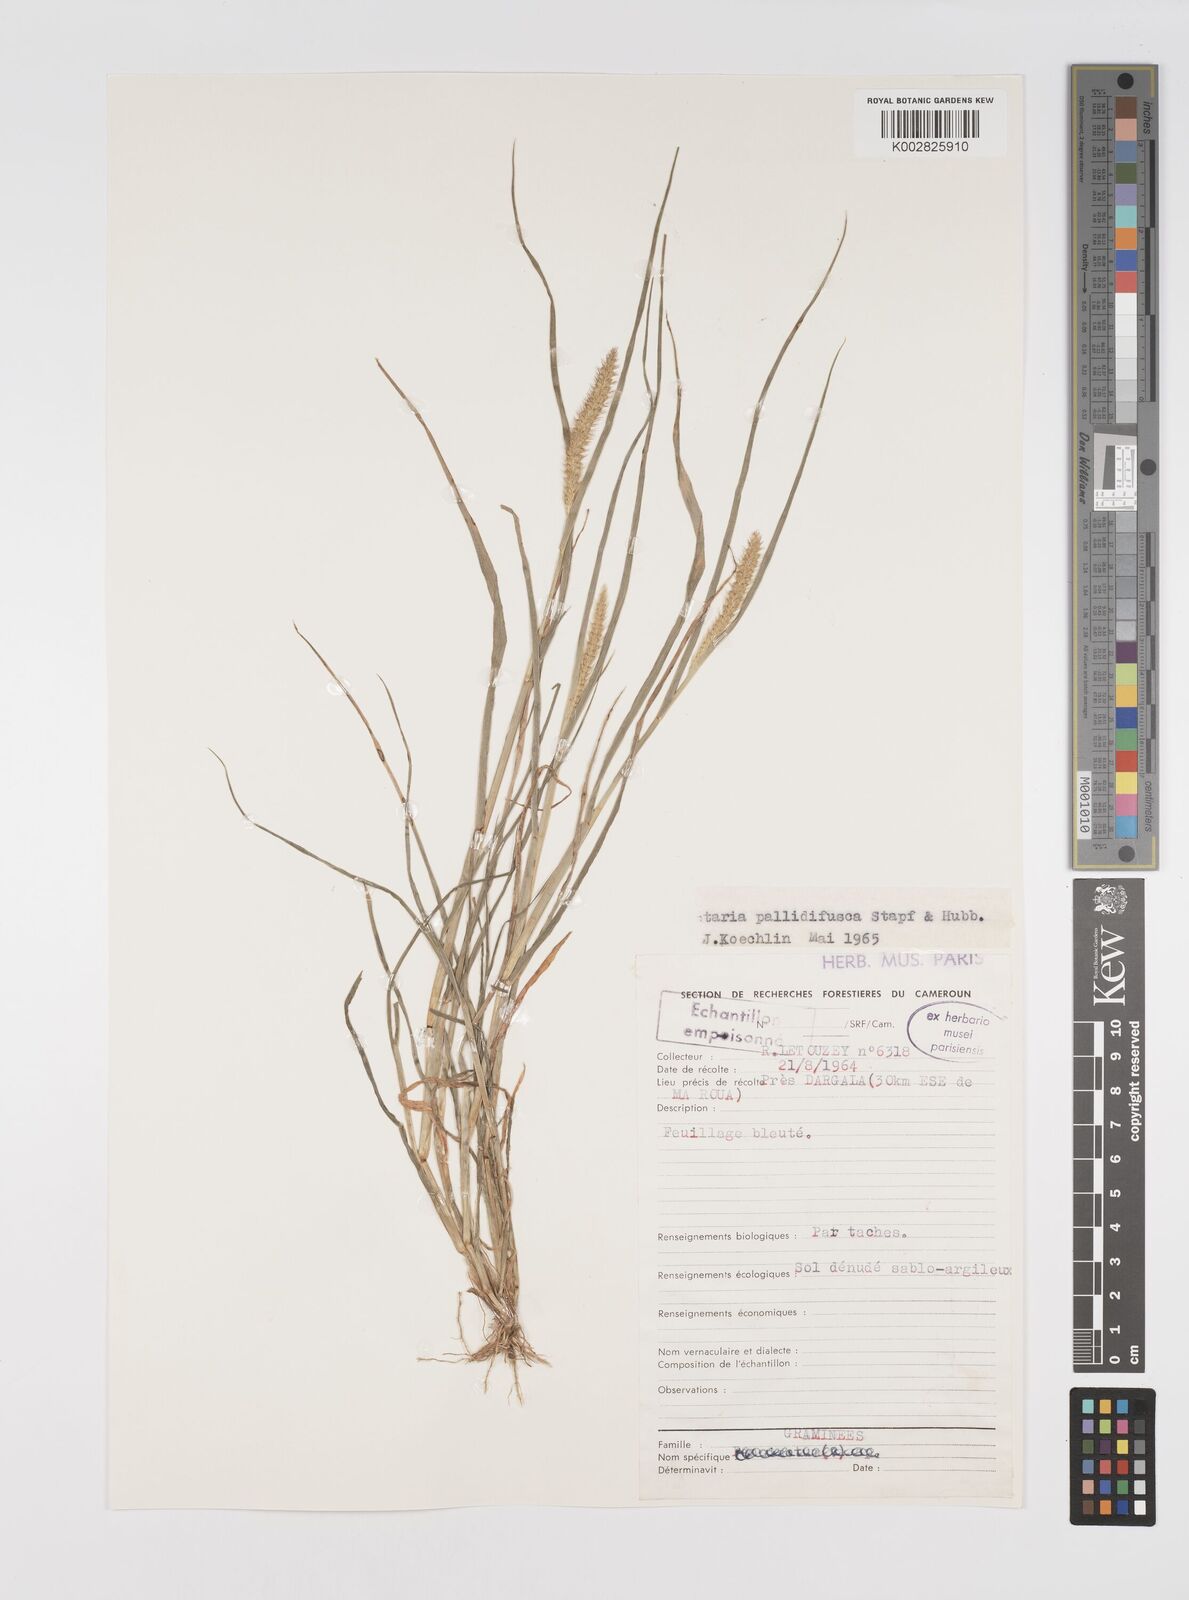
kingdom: Plantae
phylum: Tracheophyta
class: Liliopsida
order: Poales
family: Poaceae
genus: Setaria
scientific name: Setaria pumila
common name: Yellow bristle-grass
